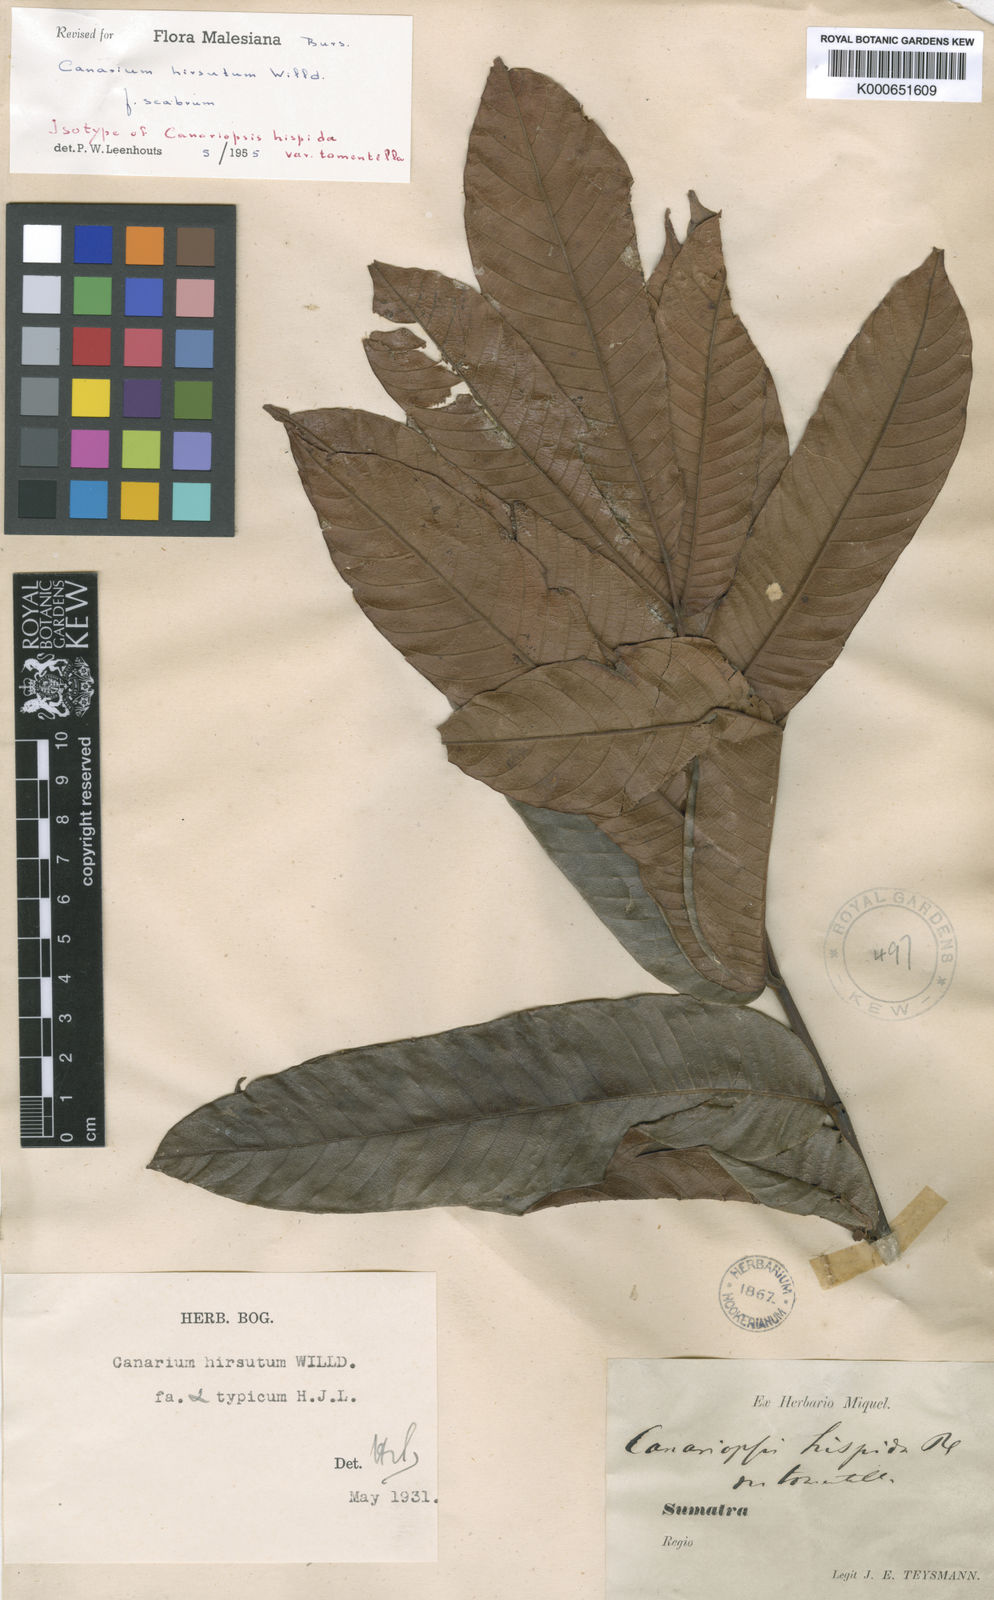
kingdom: Plantae
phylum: Tracheophyta
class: Magnoliopsida
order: Sapindales
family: Burseraceae
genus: Canarium
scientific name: Canarium hirsutum
